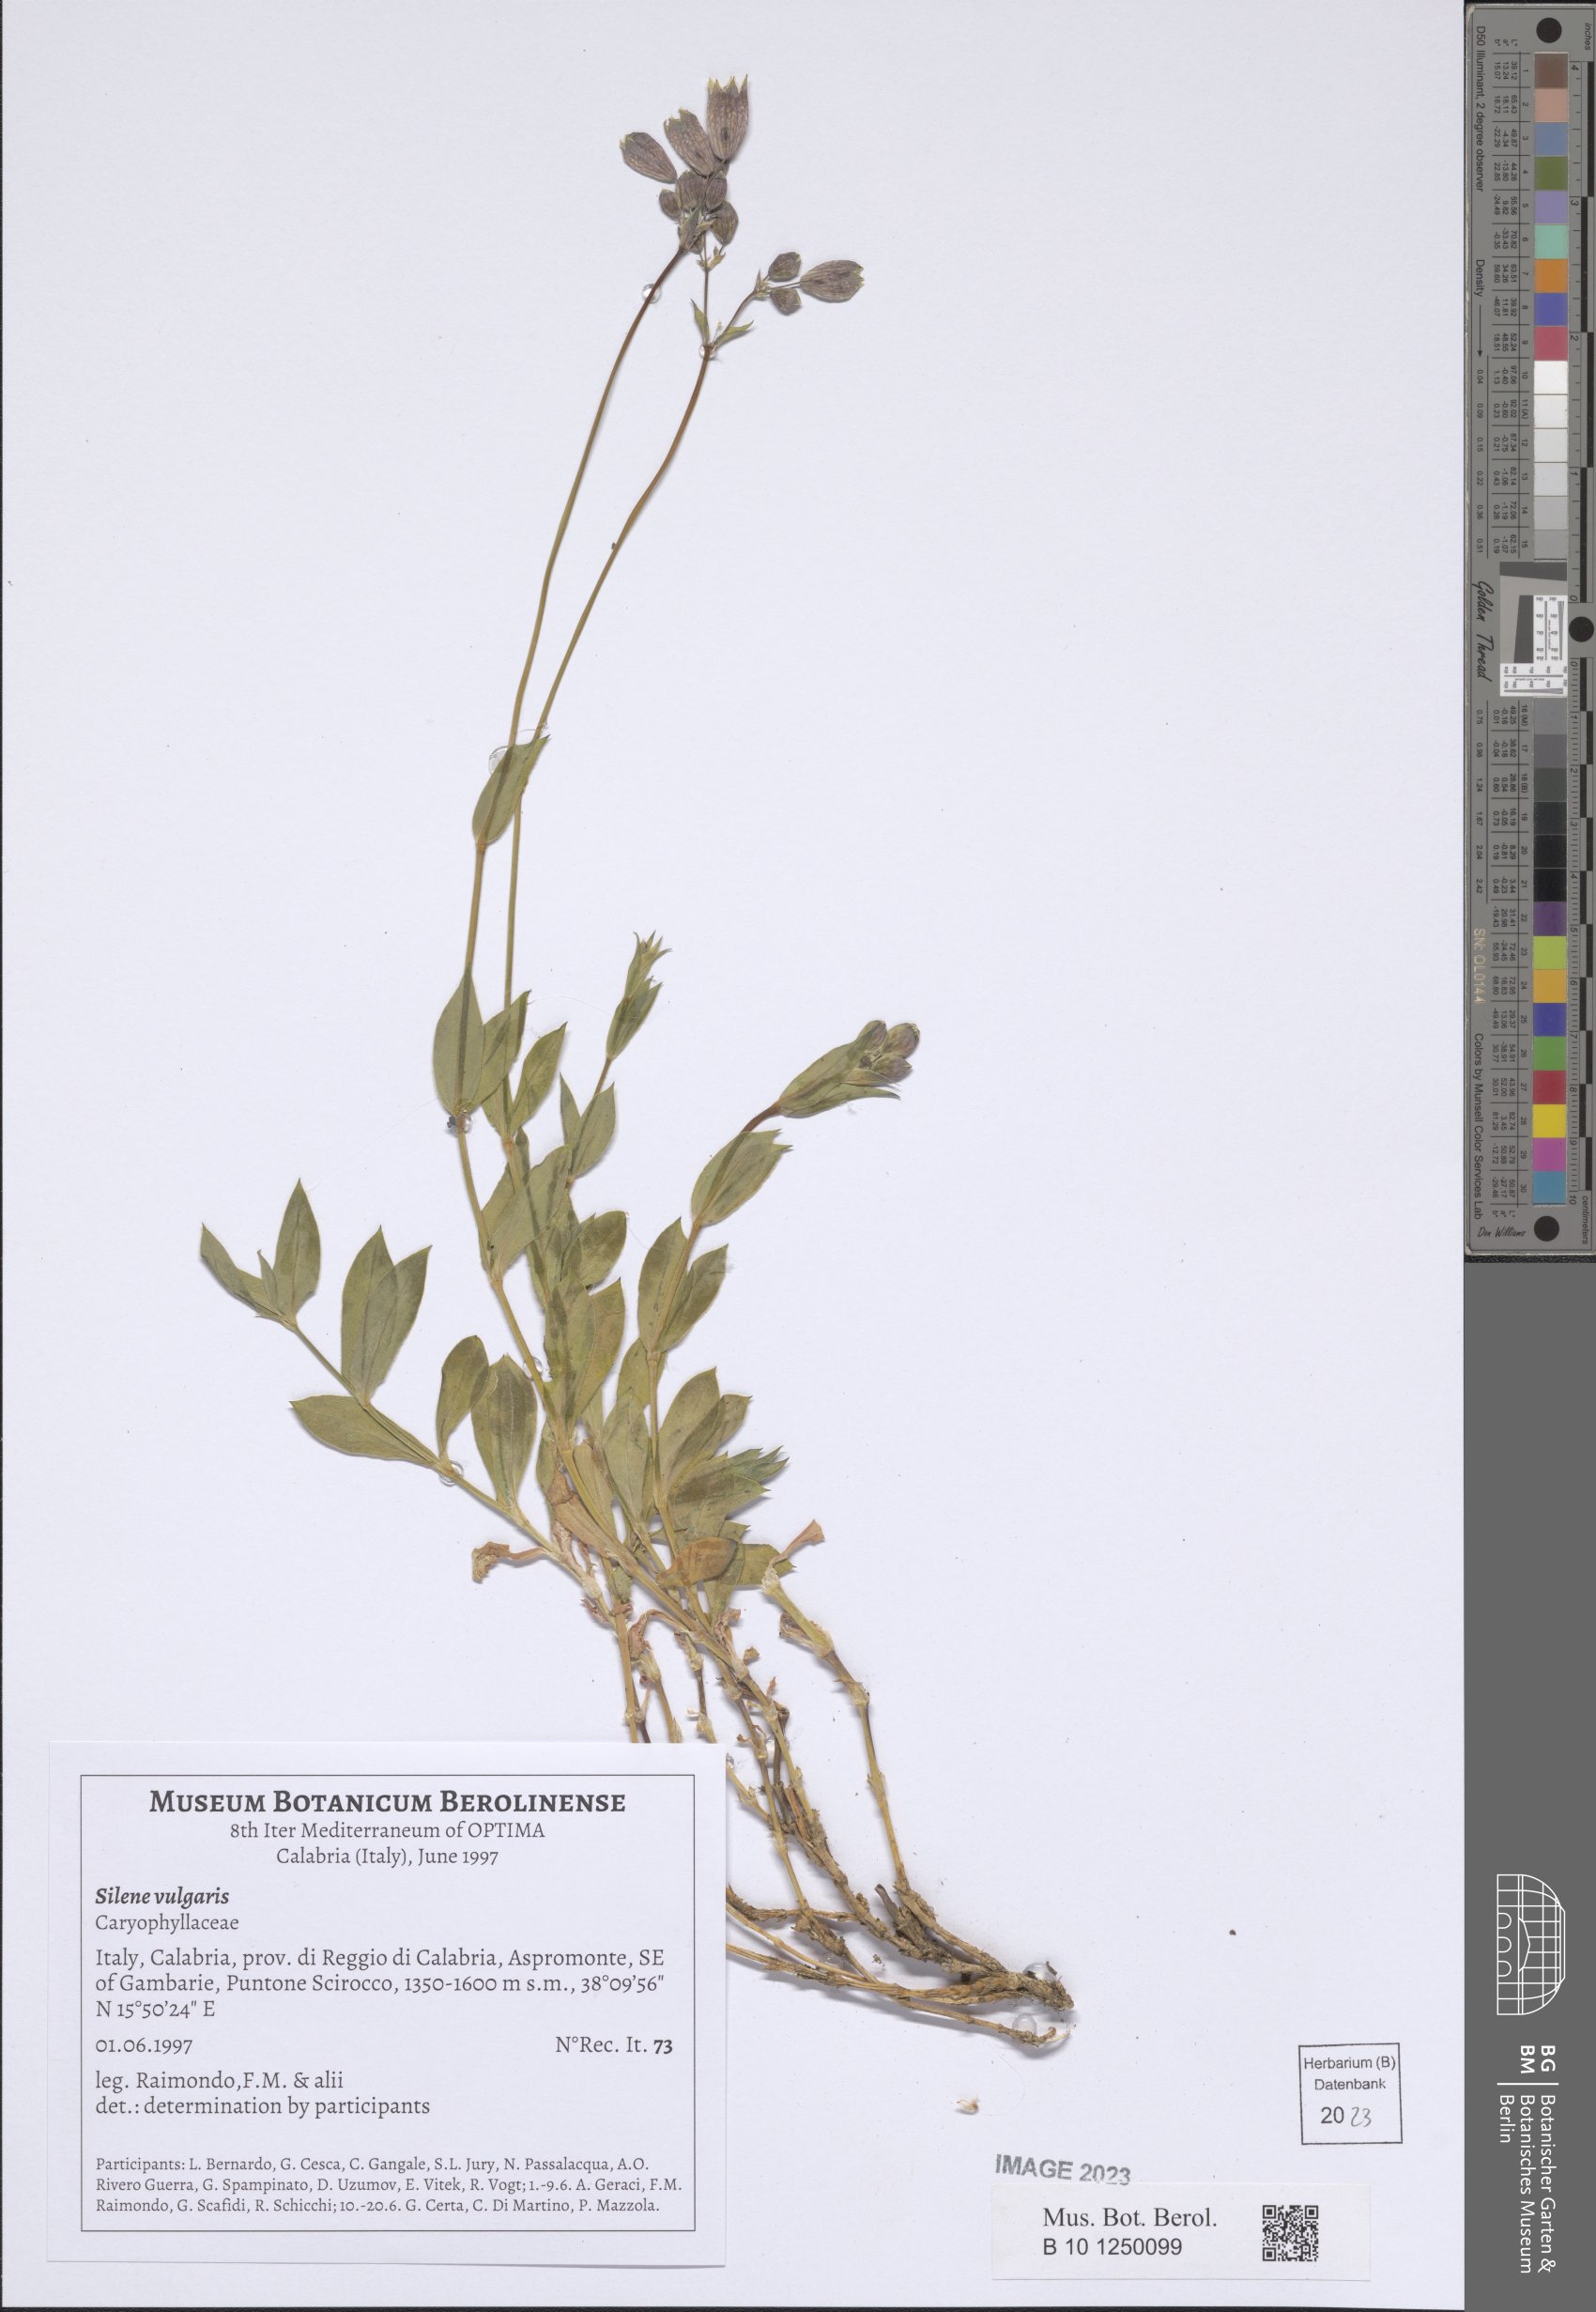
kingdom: Plantae
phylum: Tracheophyta
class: Magnoliopsida
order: Caryophyllales
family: Caryophyllaceae
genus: Silene
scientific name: Silene vulgaris
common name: Bladder campion
